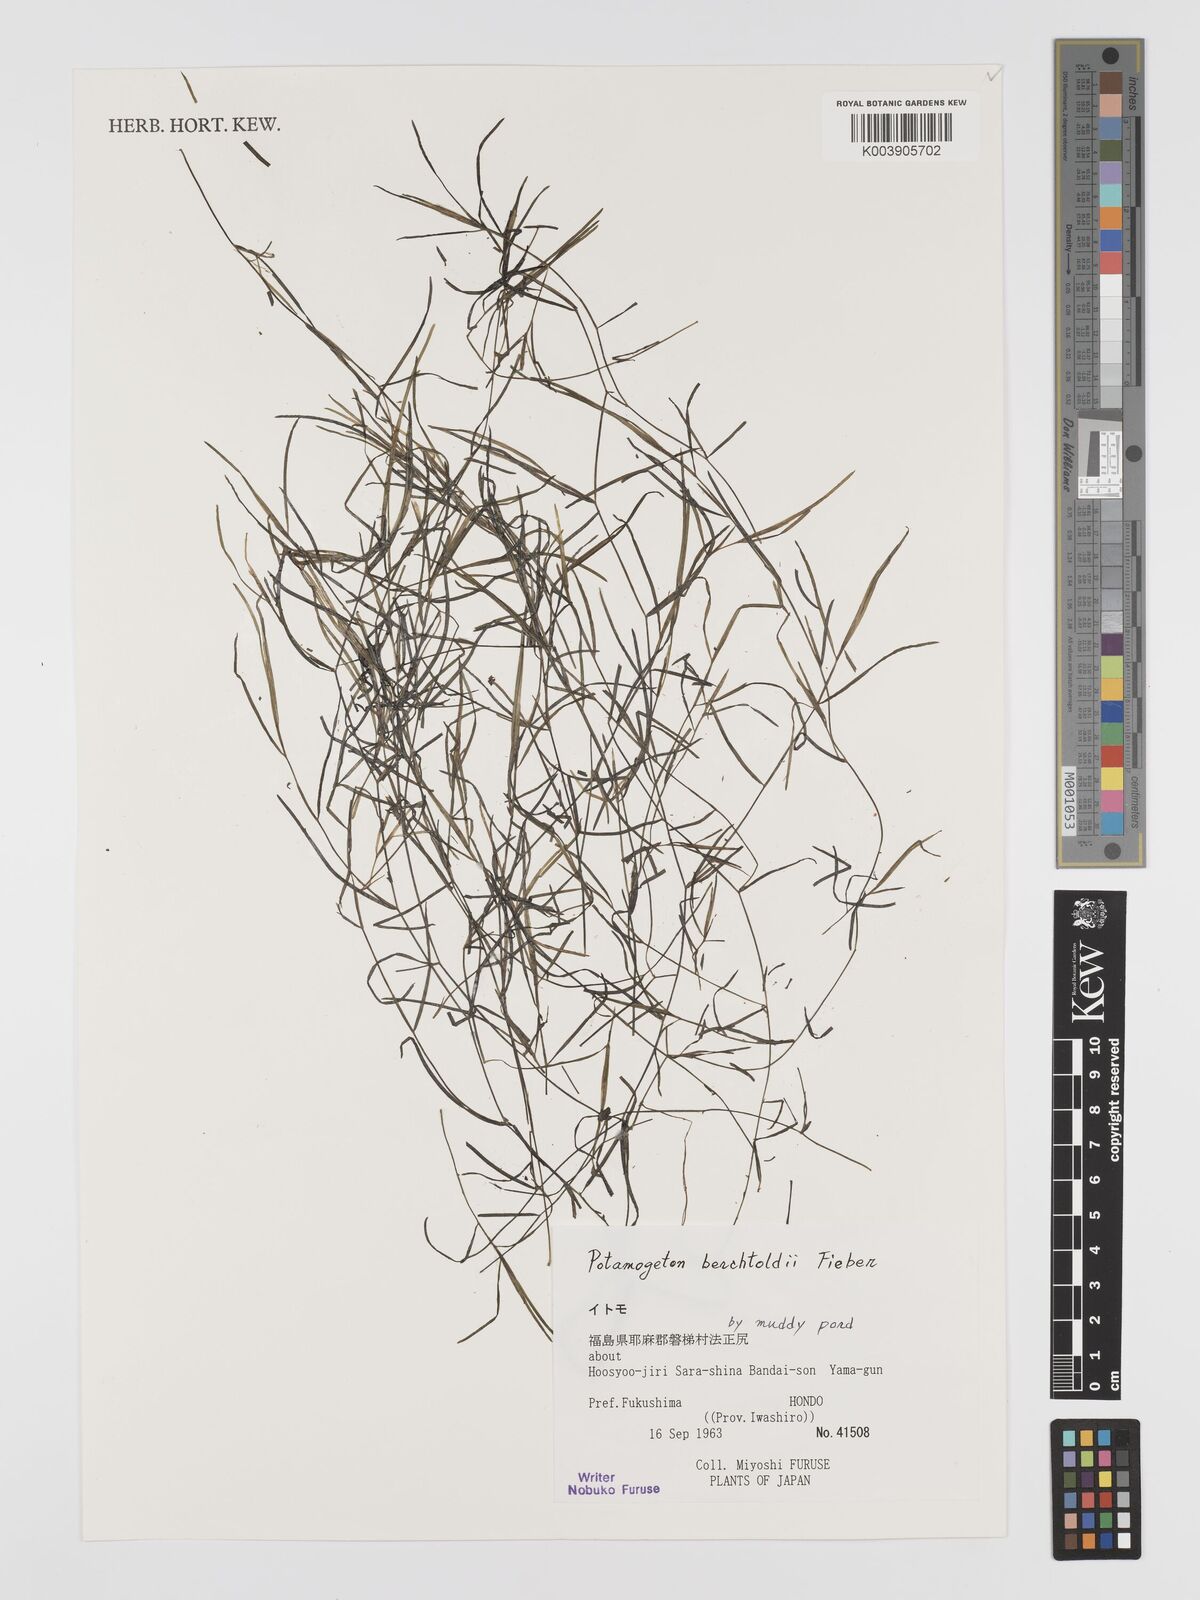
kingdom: Plantae
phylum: Tracheophyta
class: Liliopsida
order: Alismatales
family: Potamogetonaceae
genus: Potamogeton
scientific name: Potamogeton berchtoldii
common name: Small pondweed
